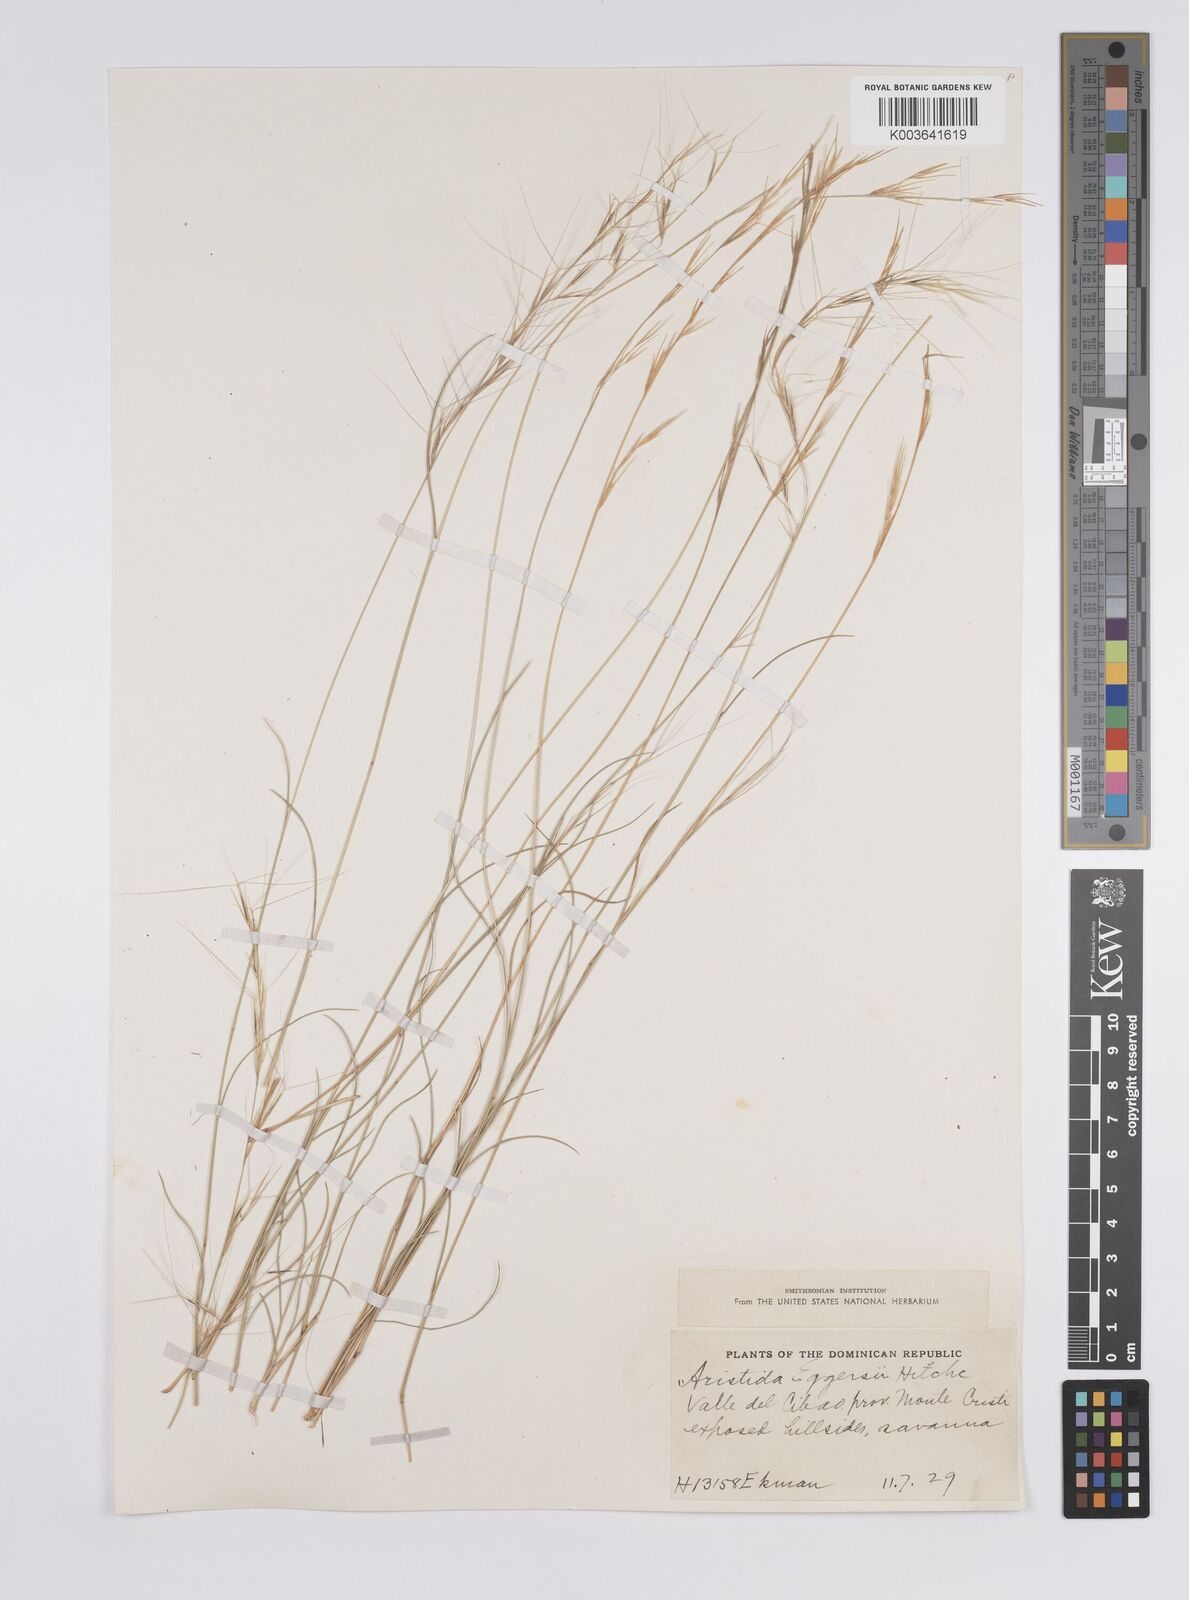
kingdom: Plantae
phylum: Tracheophyta
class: Liliopsida
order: Poales
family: Poaceae
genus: Aristida
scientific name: Aristida purpurea
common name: Purple threeawn
